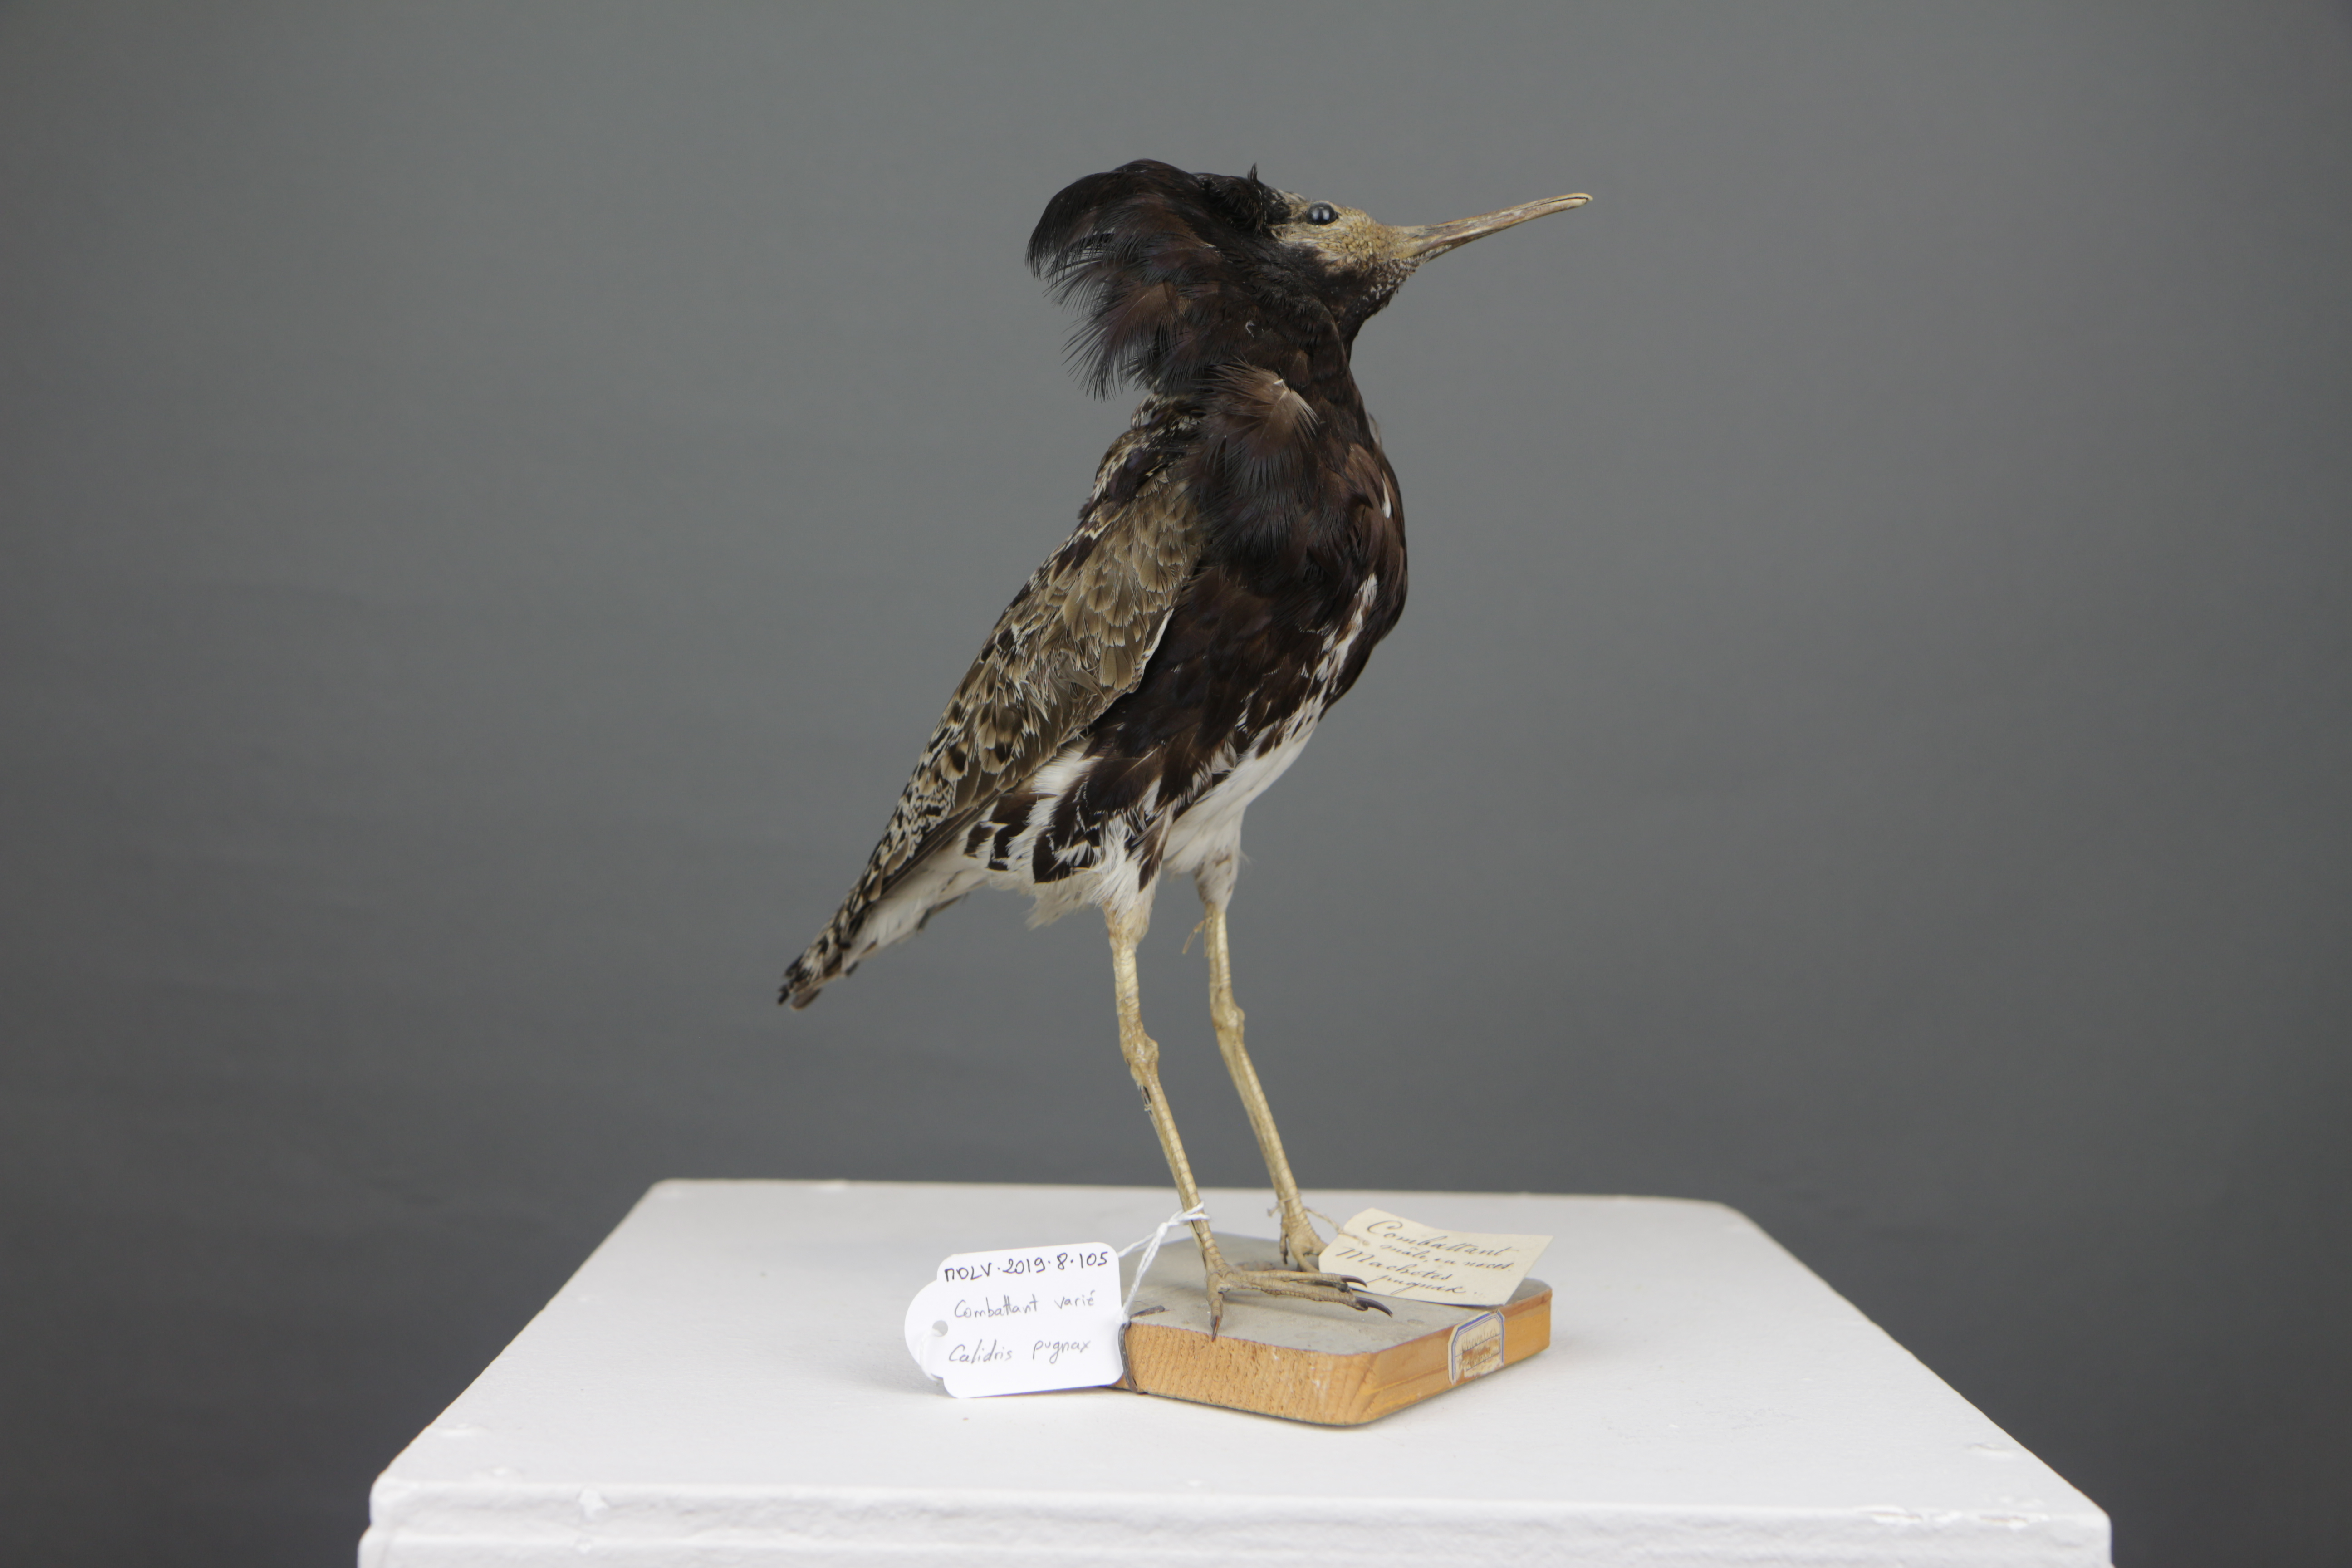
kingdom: Animalia
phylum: Chordata
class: Aves
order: Charadriiformes
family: Scolopacidae
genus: Calidris
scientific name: Calidris pugnax
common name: Ruff
